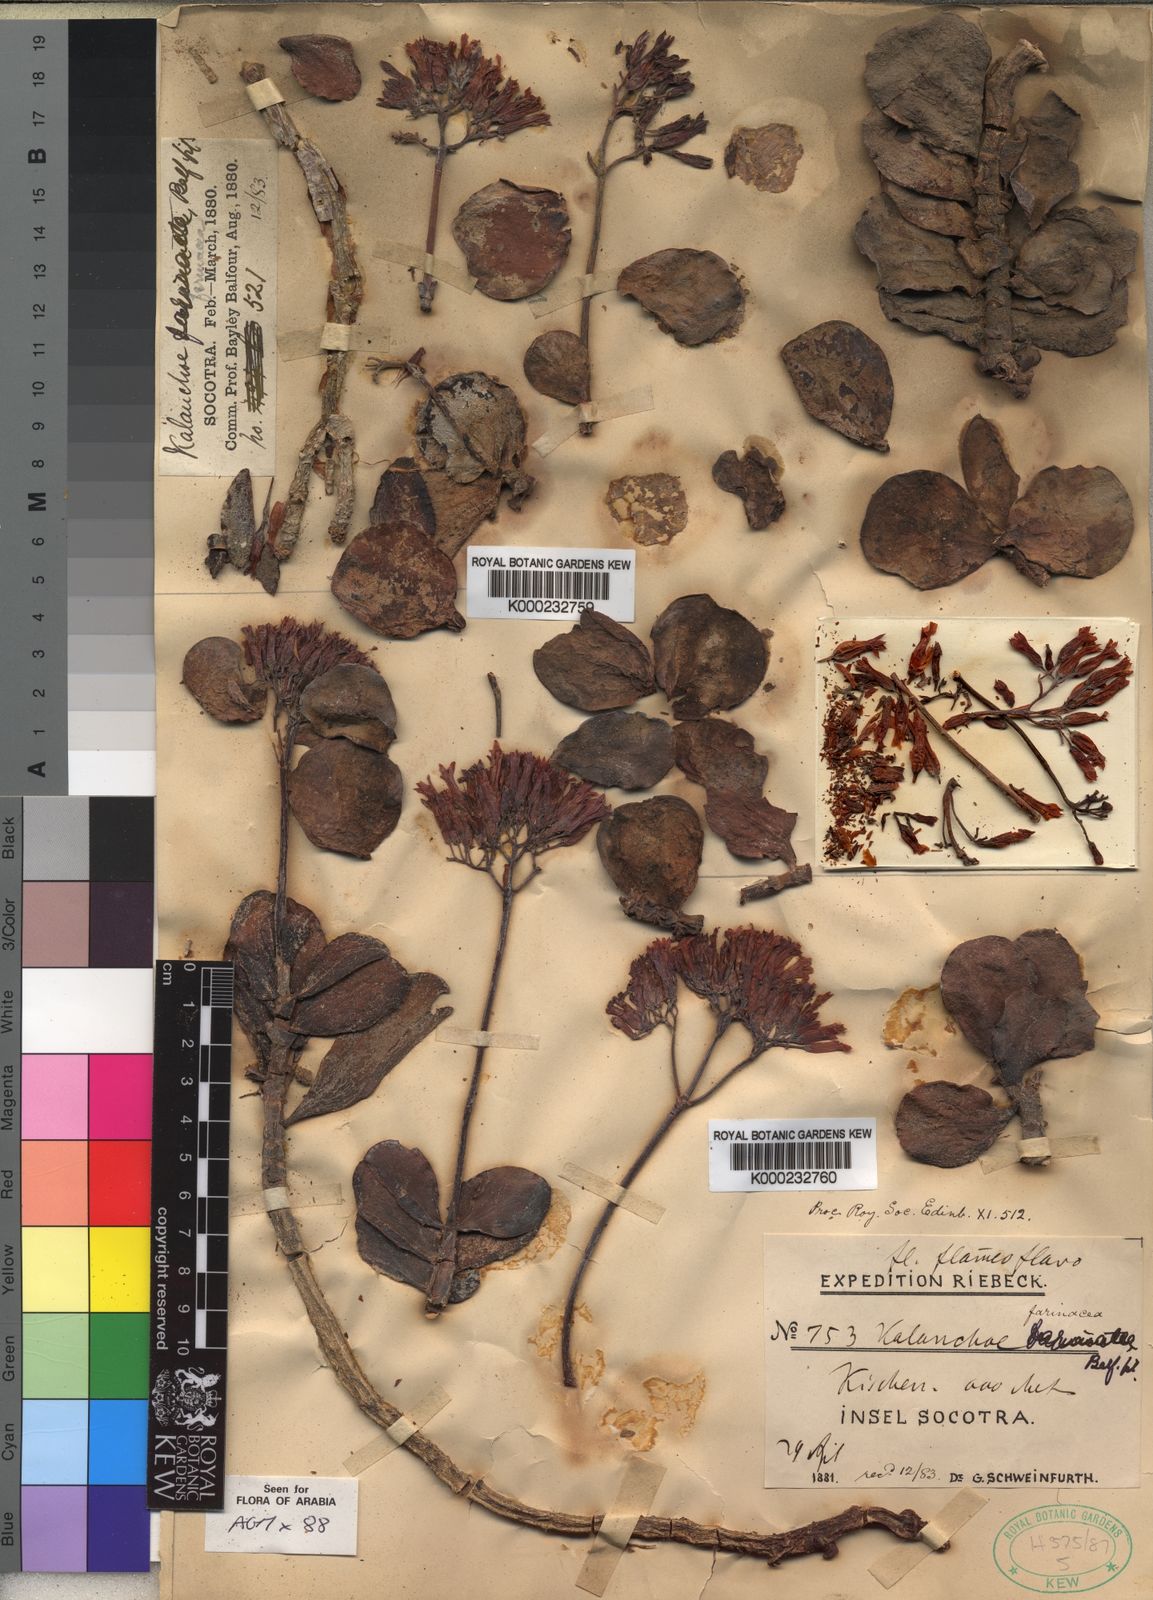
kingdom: Plantae
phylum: Tracheophyta
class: Magnoliopsida
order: Saxifragales
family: Crassulaceae
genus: Kalanchoe
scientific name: Kalanchoe farinacea
